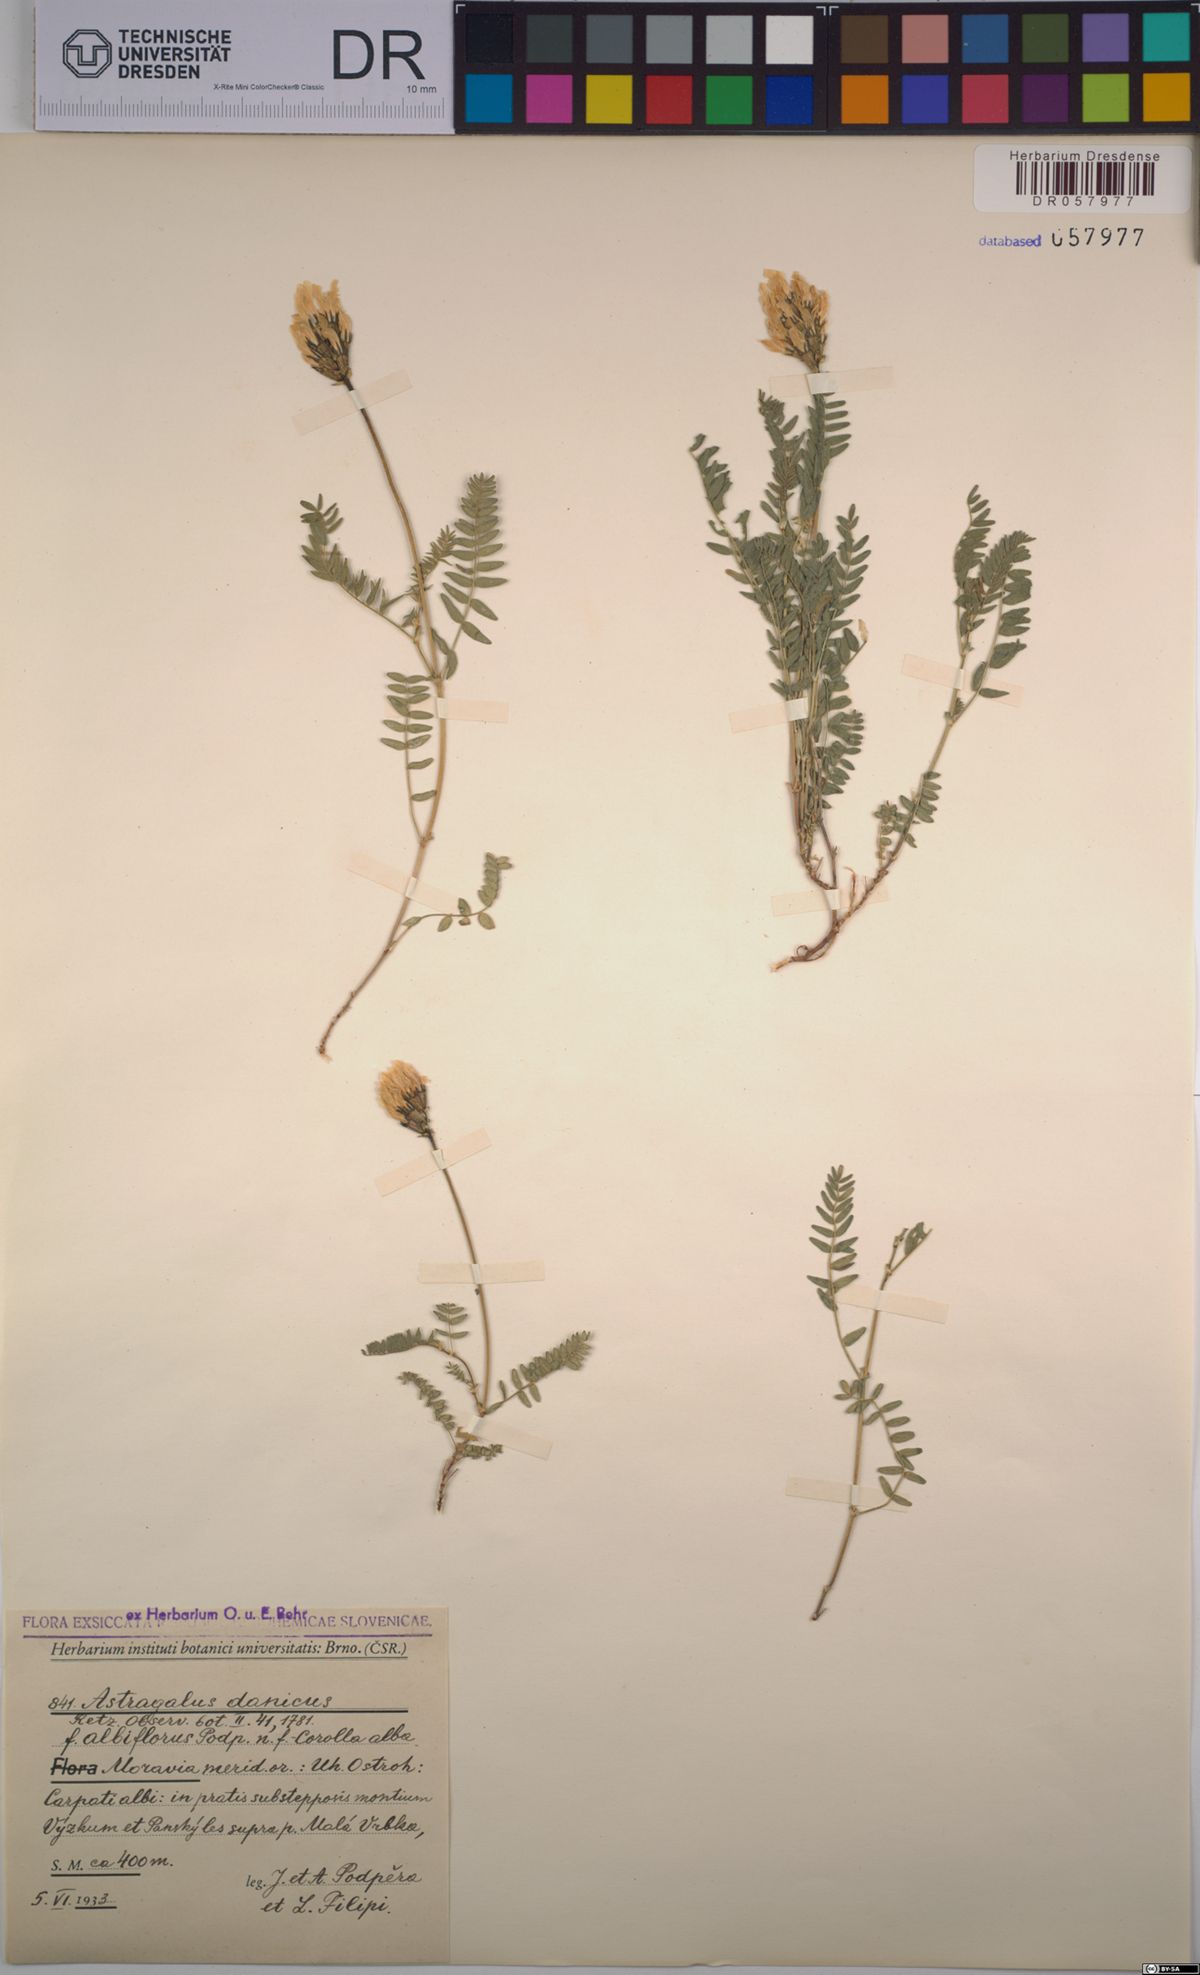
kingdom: Plantae
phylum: Tracheophyta
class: Magnoliopsida
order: Fabales
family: Fabaceae
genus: Astragalus
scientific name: Astragalus danicus
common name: Purple milk-vetch
